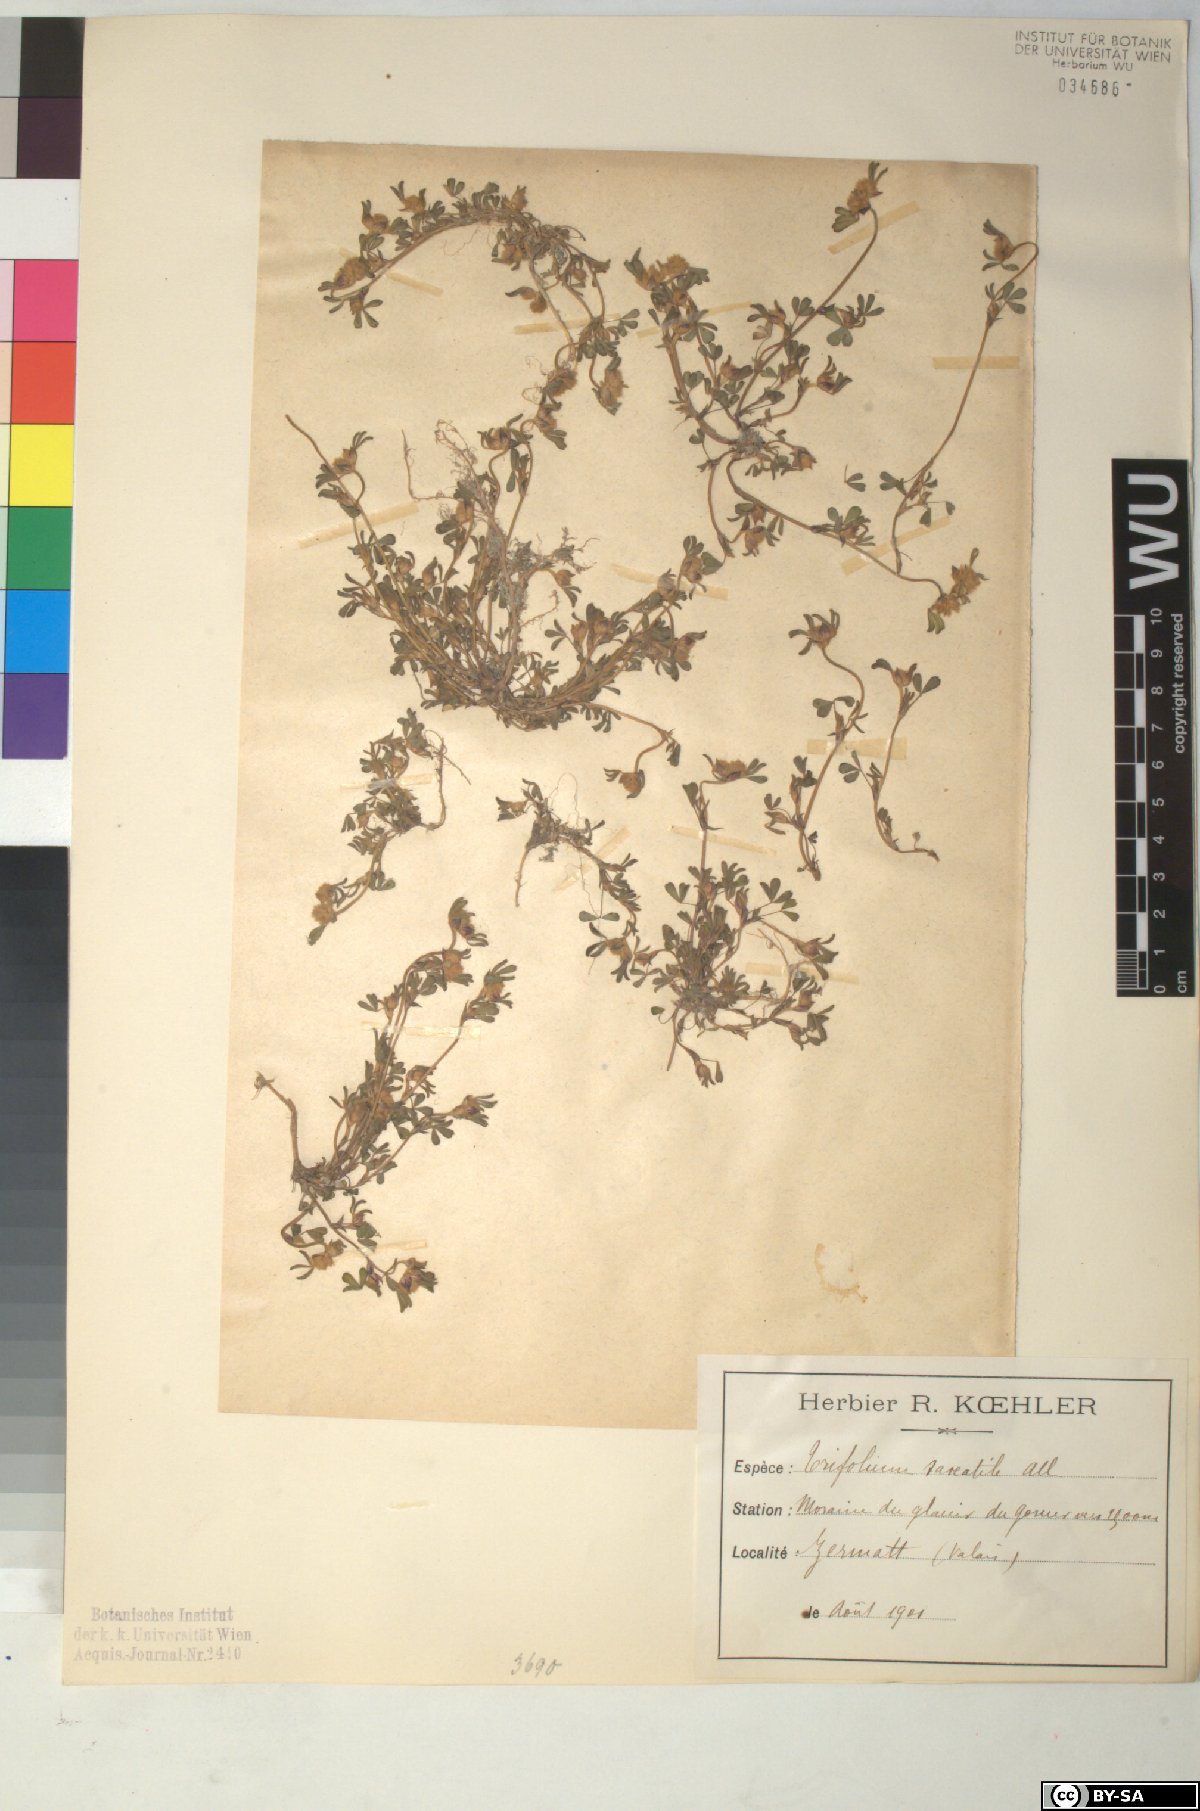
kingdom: Plantae
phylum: Tracheophyta
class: Magnoliopsida
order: Fabales
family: Fabaceae
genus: Trifolium
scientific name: Trifolium saxatile
